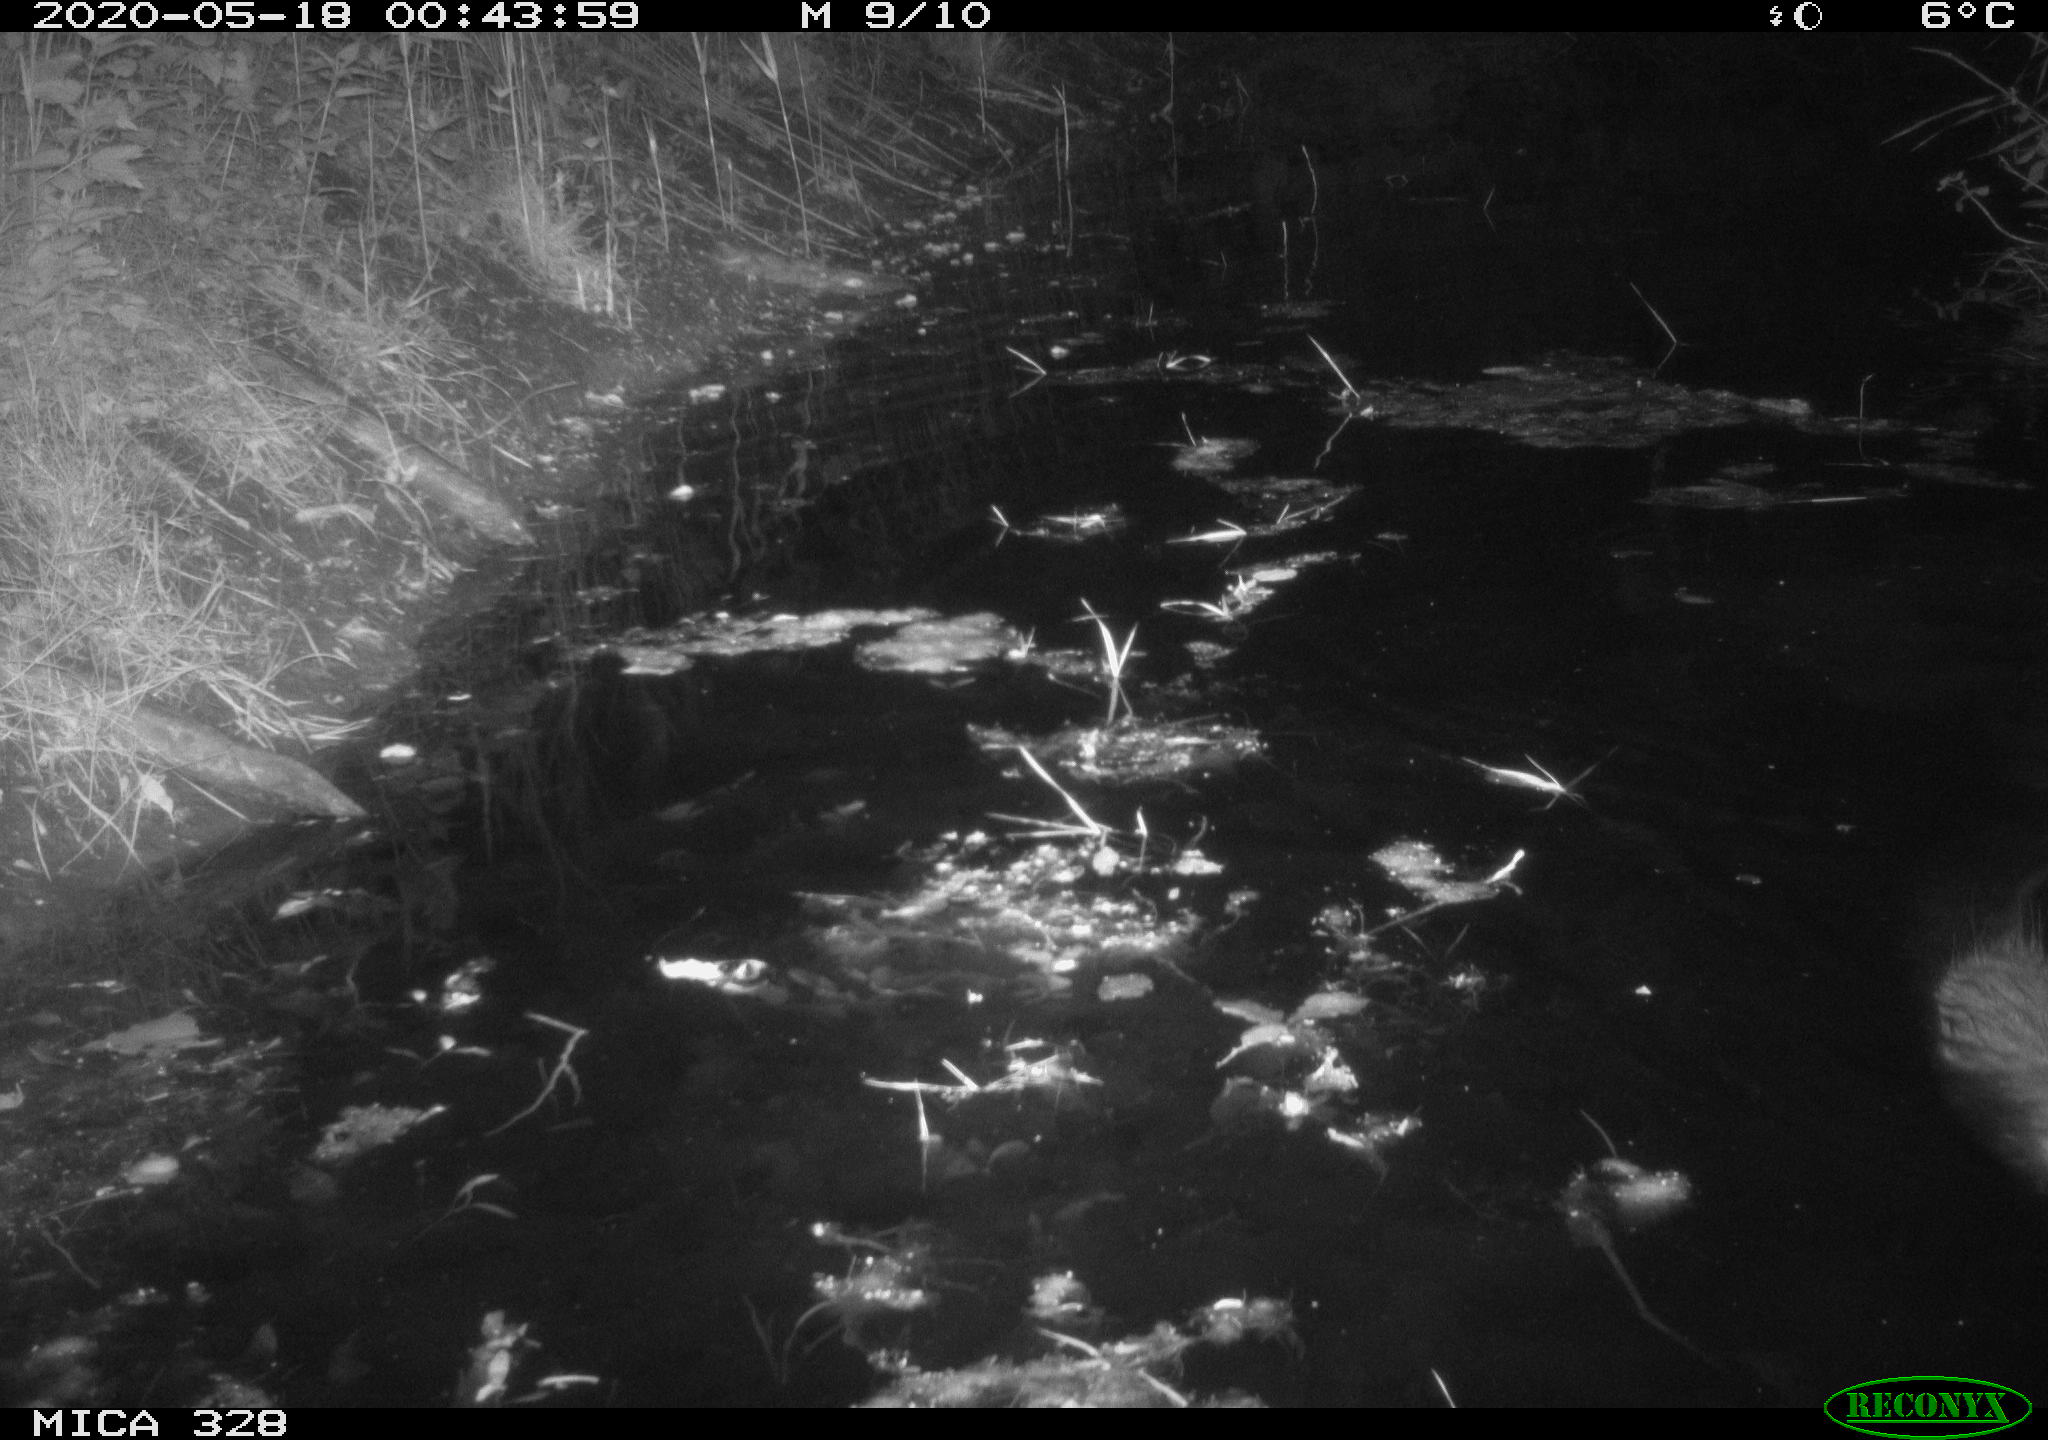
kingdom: Animalia
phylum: Chordata
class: Mammalia
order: Rodentia
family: Myocastoridae
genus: Myocastor
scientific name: Myocastor coypus
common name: Coypu
